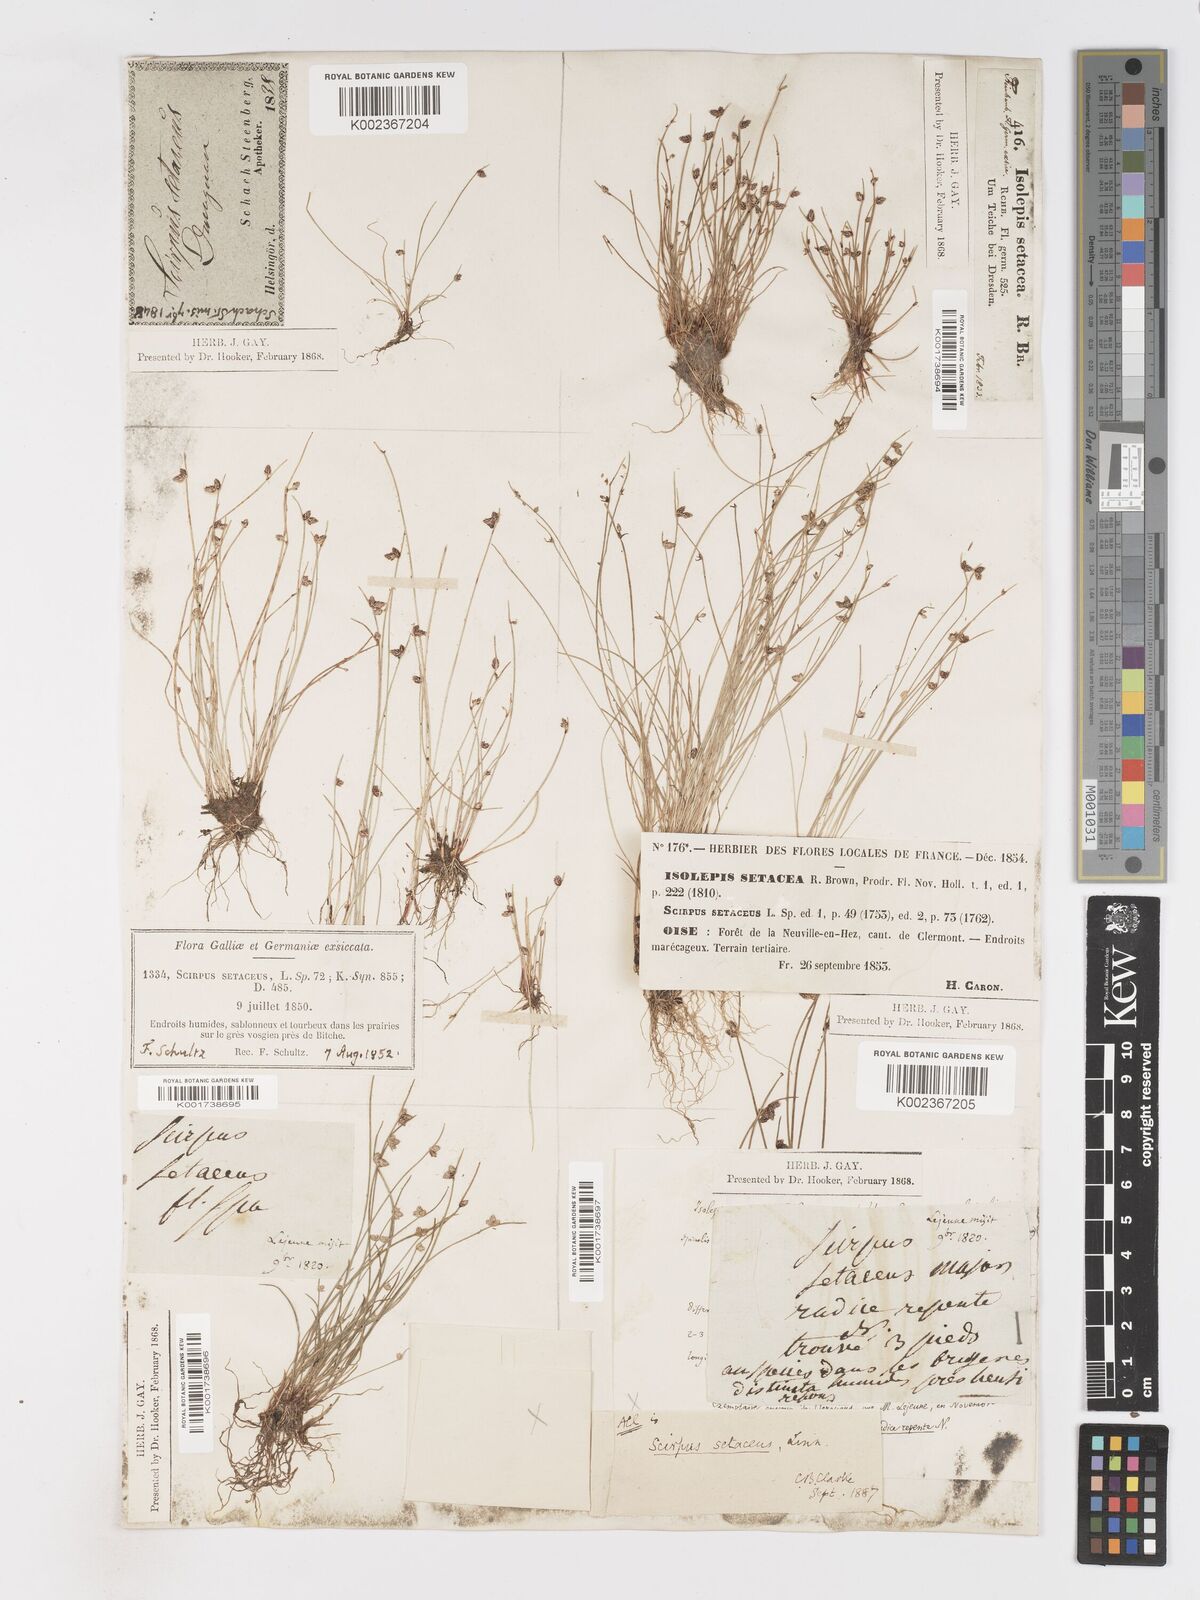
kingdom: Plantae
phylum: Tracheophyta
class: Liliopsida
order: Poales
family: Cyperaceae
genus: Isolepis
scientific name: Isolepis setacea
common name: Bristle club-rush
